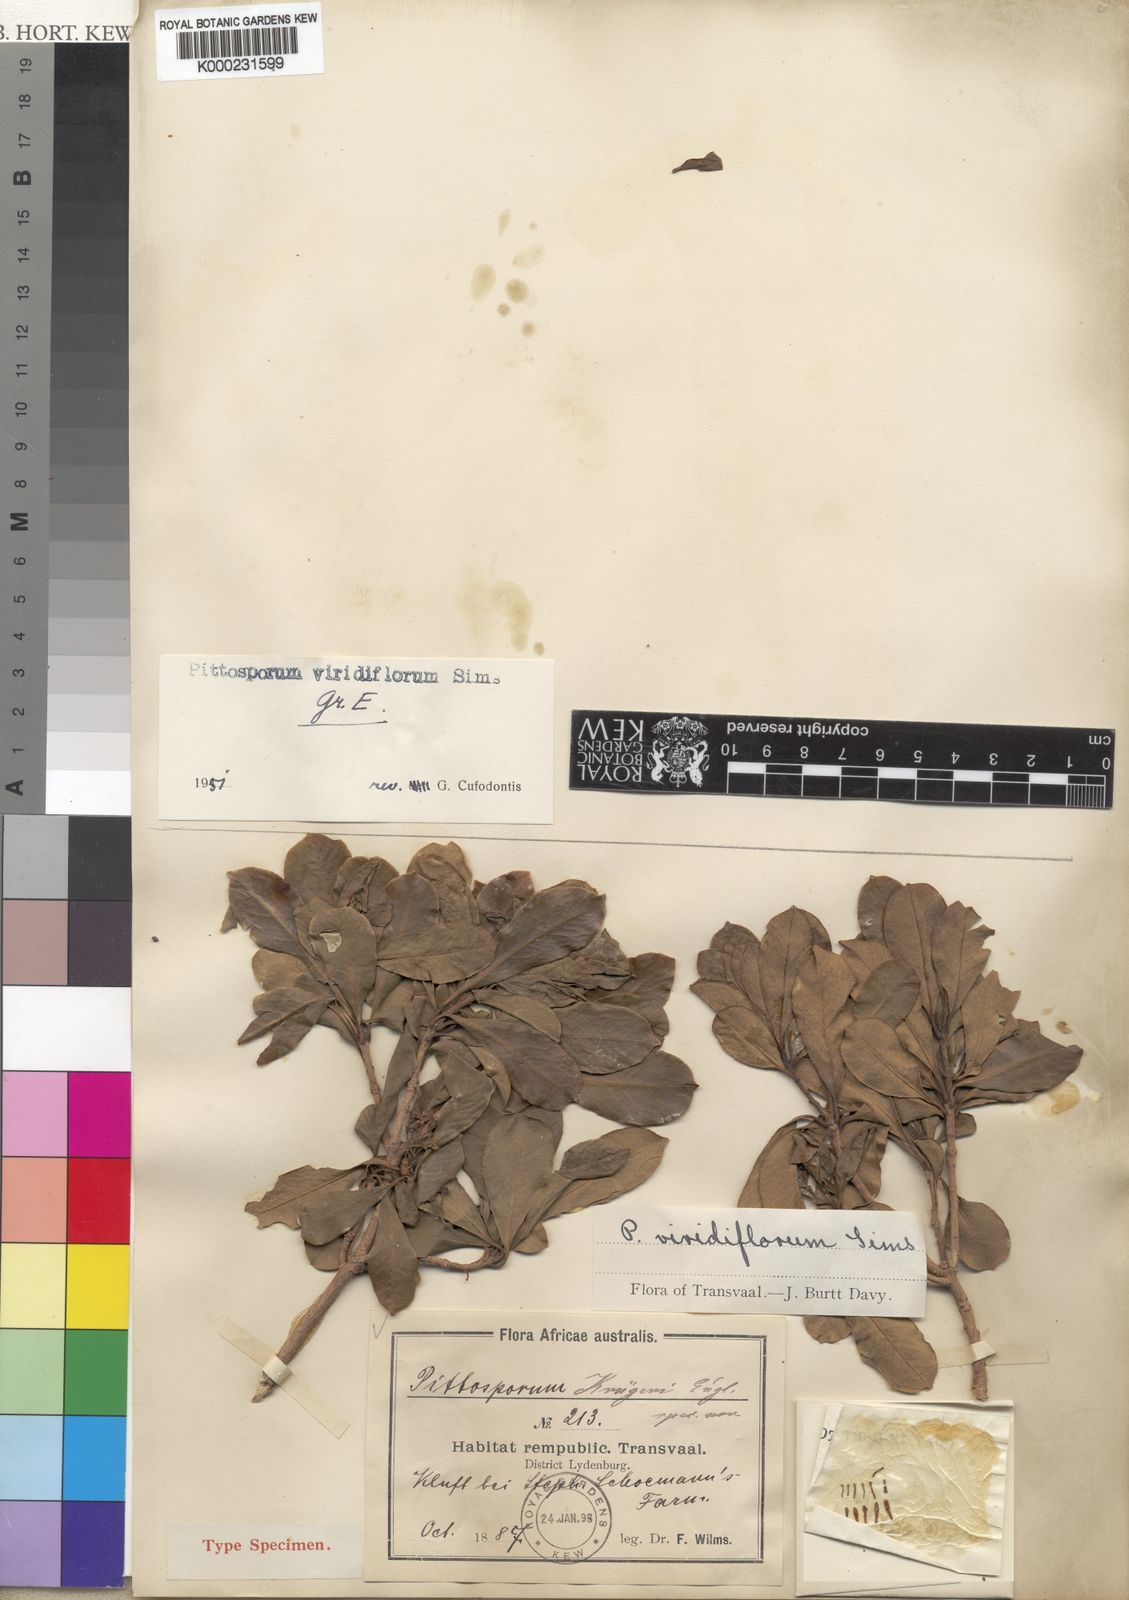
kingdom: Plantae
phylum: Tracheophyta
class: Magnoliopsida
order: Apiales
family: Pittosporaceae
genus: Pittosporum
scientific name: Pittosporum viridiflorum
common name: Cape cheesewood
